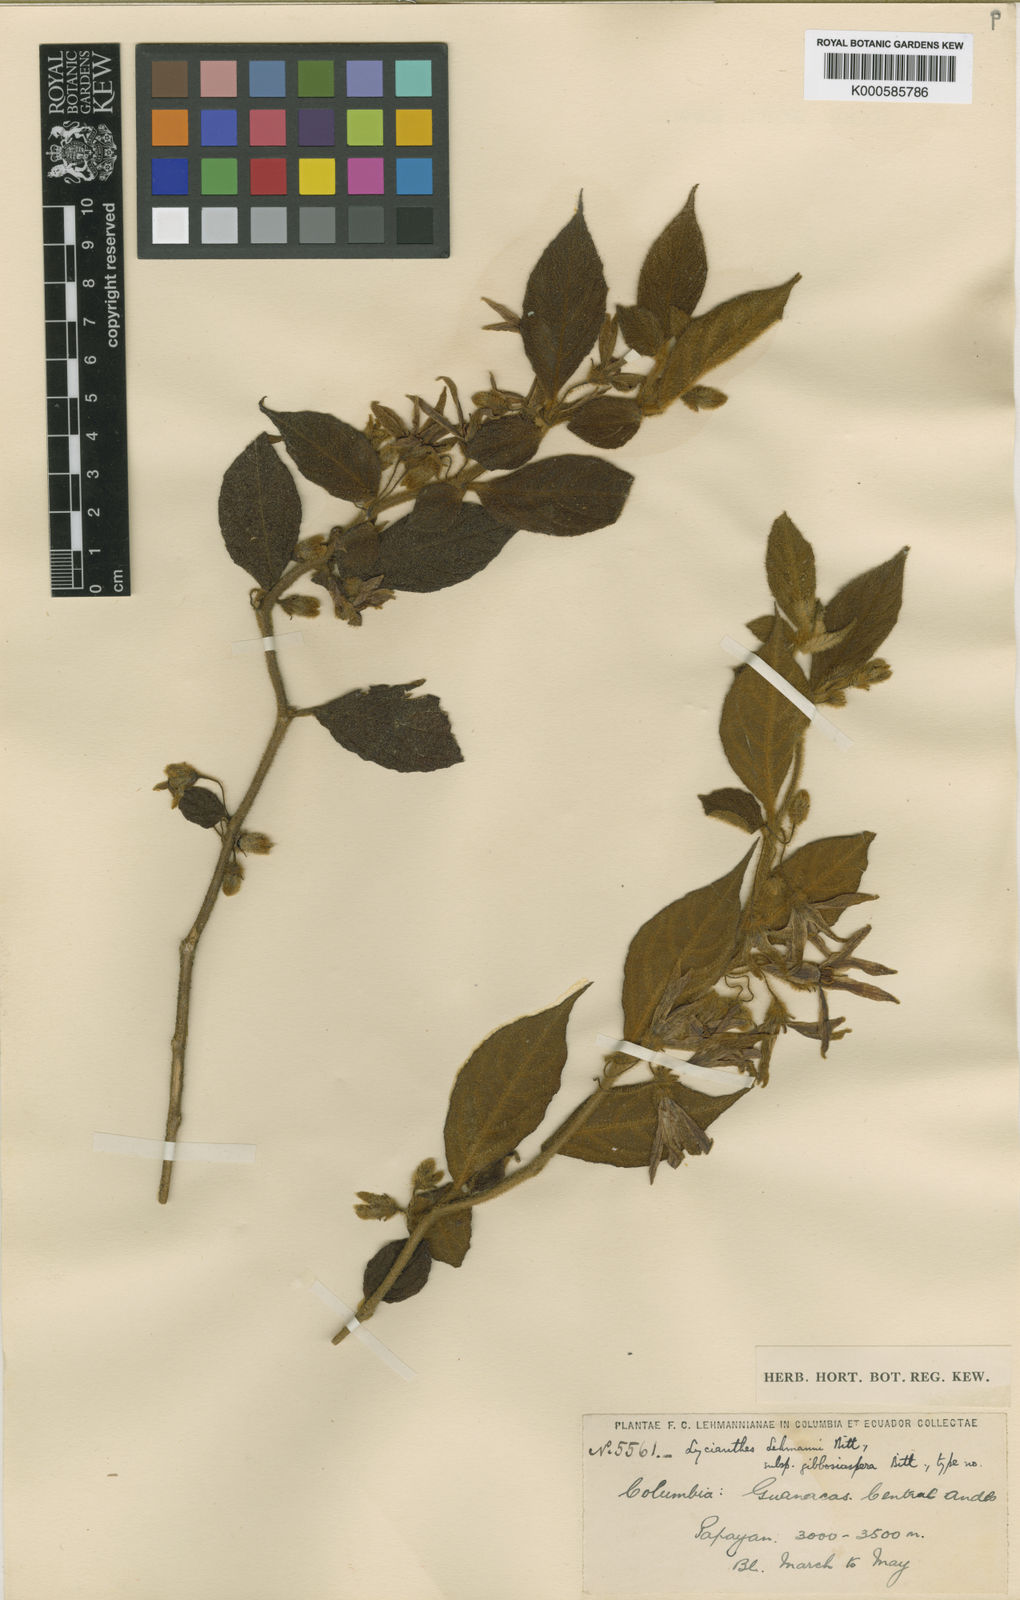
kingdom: Plantae
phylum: Tracheophyta
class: Magnoliopsida
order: Solanales
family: Solanaceae
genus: Lycianthes
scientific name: Lycianthes acutifolia
